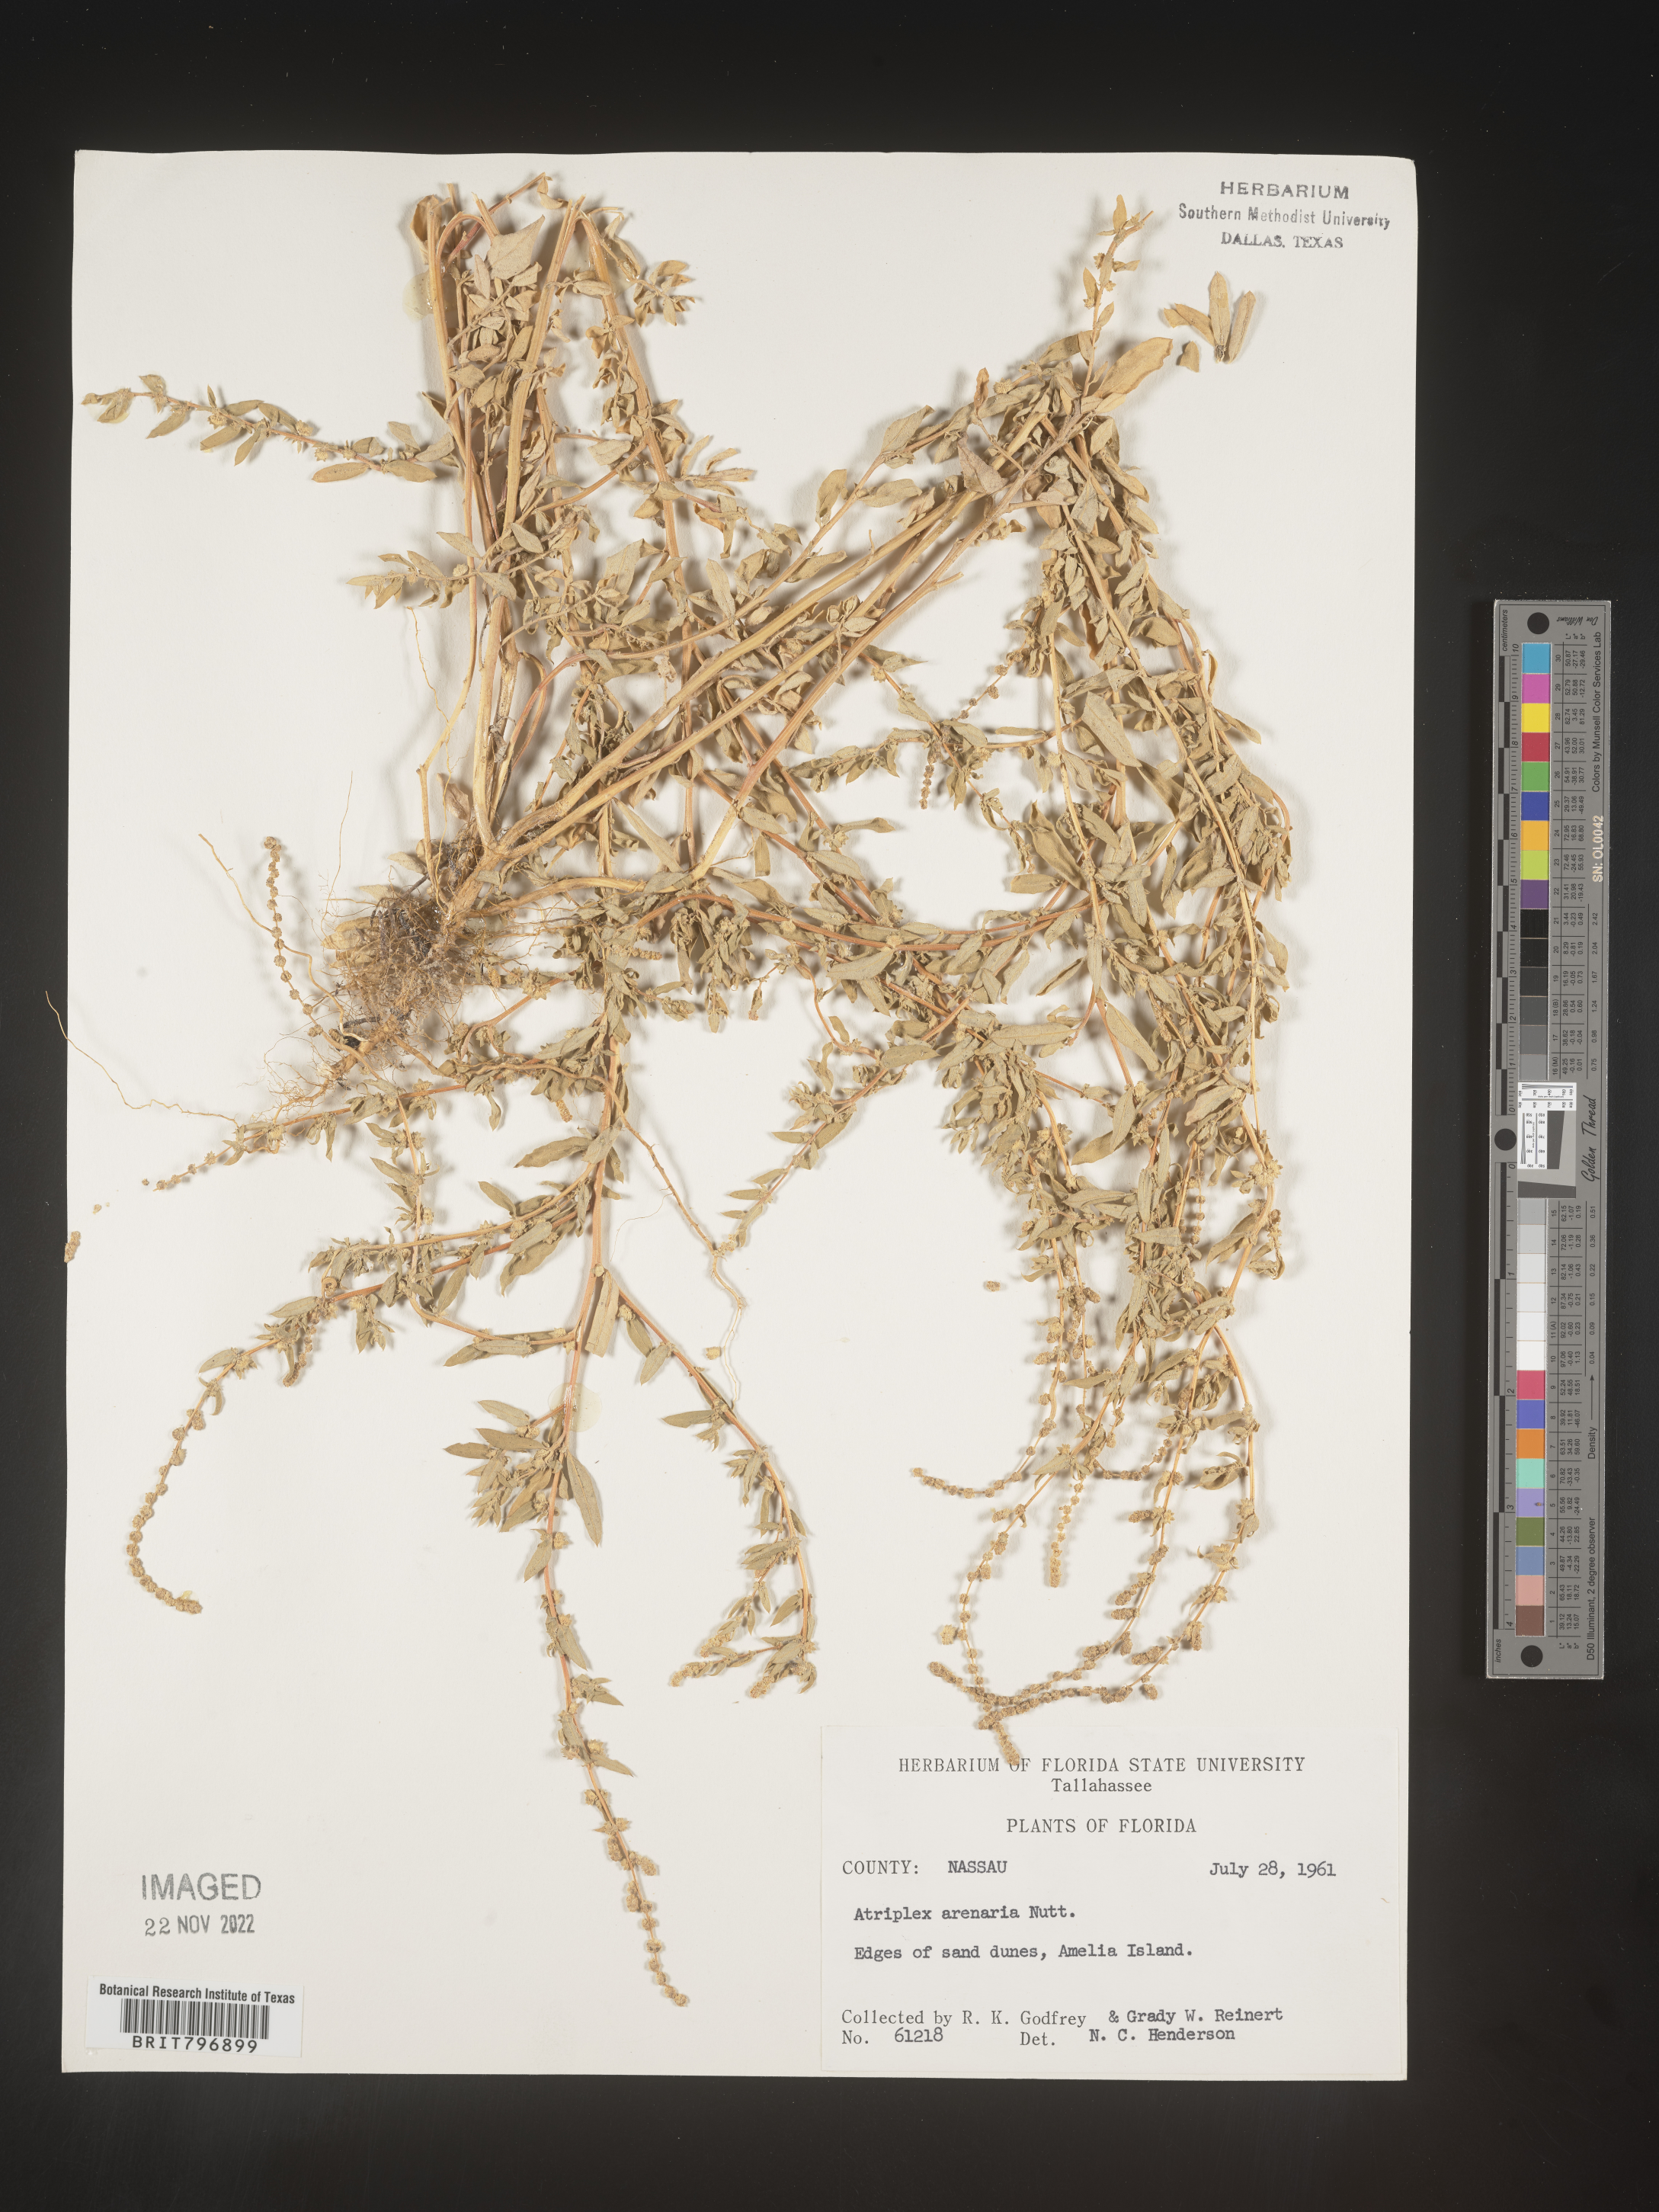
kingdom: Plantae
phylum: Tracheophyta
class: Magnoliopsida
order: Caryophyllales
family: Amaranthaceae
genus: Atriplex
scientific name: Atriplex mucronata
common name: Quelite
